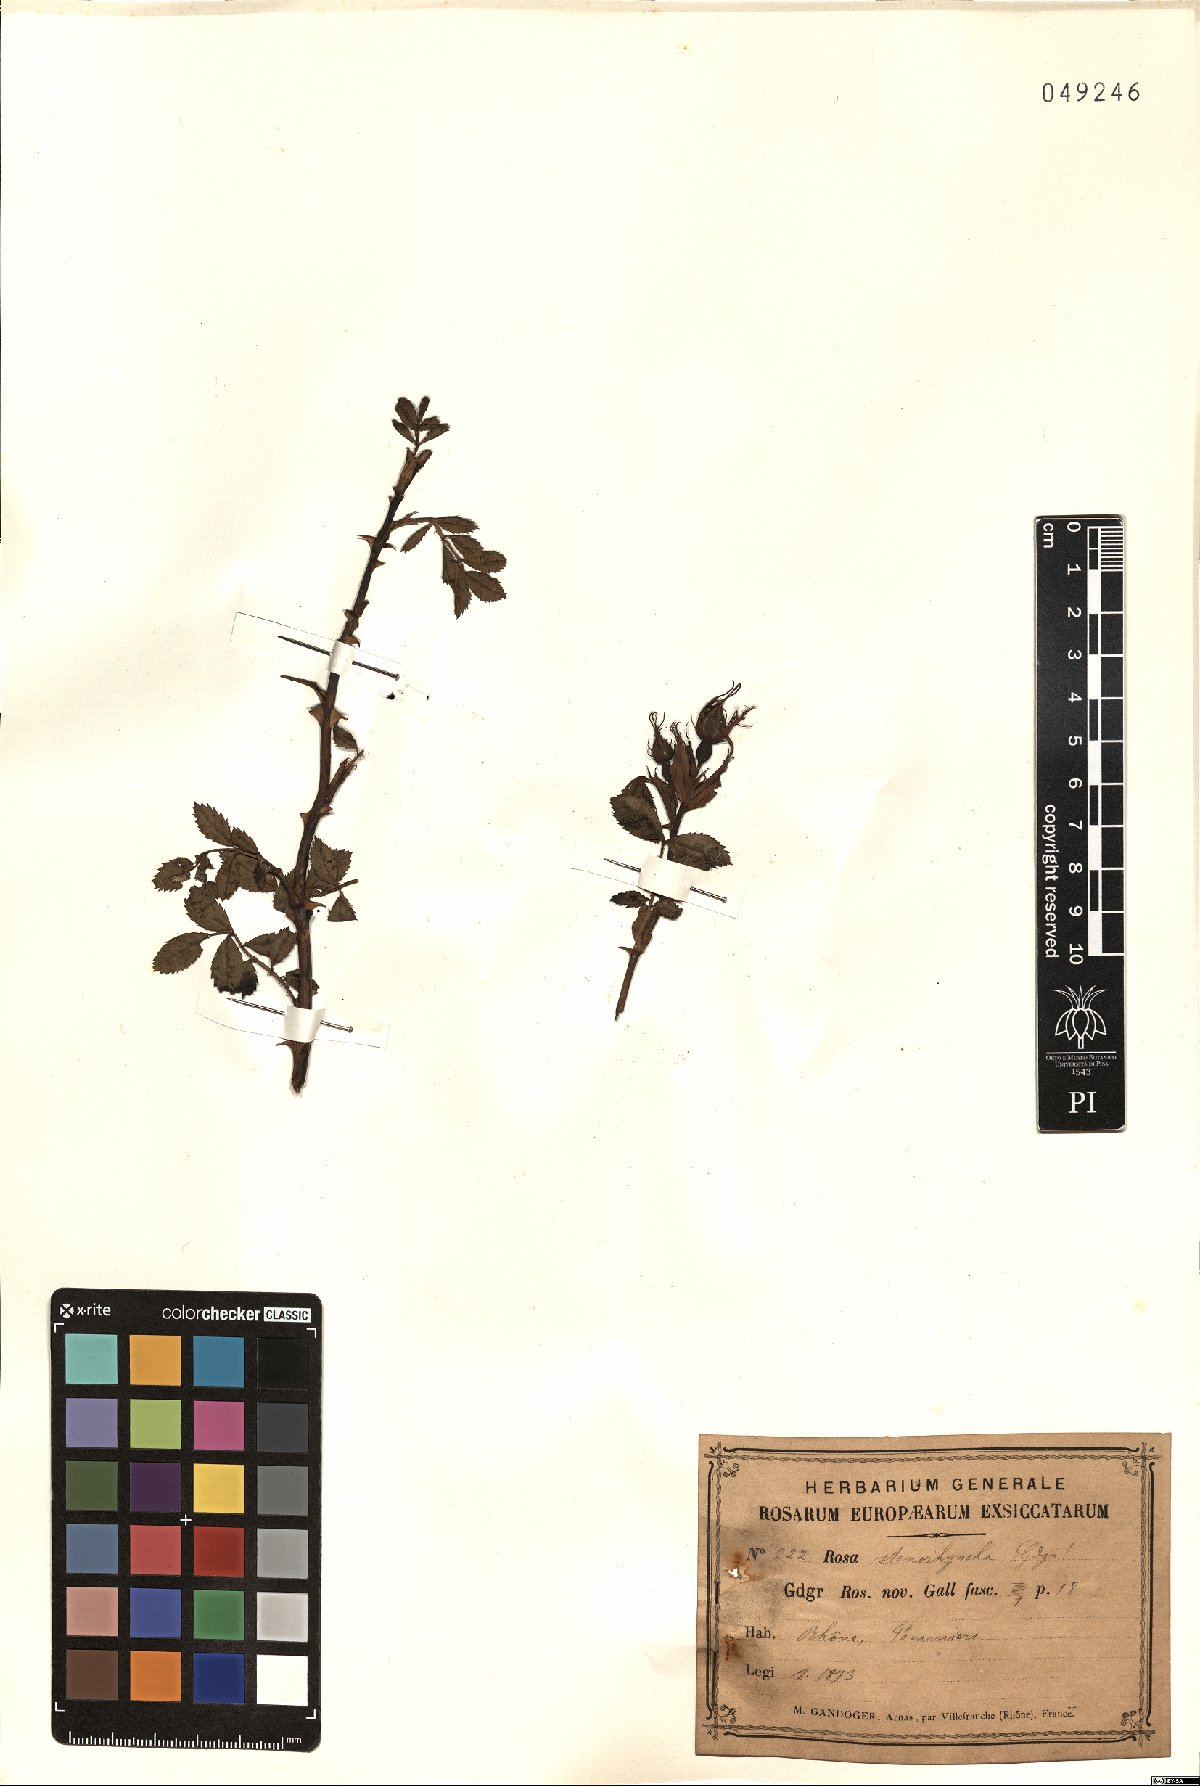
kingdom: Plantae
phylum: Tracheophyta
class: Magnoliopsida
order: Rosales
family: Rosaceae
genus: Rosa
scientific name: Rosa agrestis
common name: Fieldbriar
